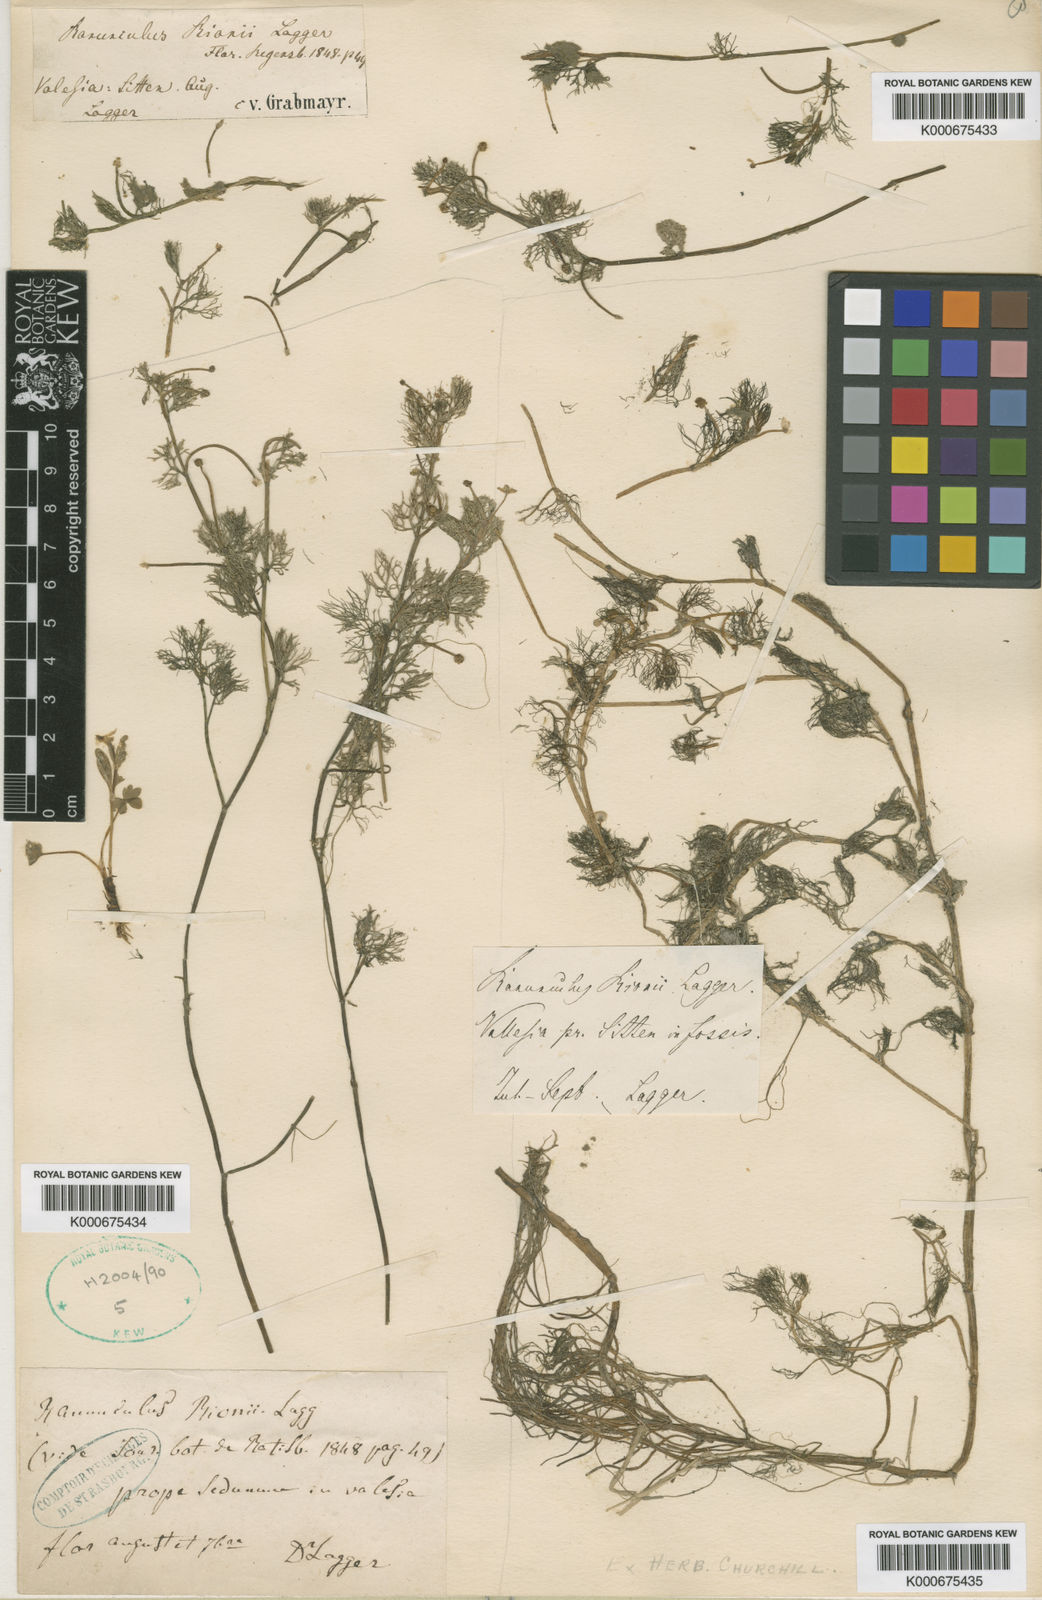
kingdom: Plantae
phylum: Tracheophyta
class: Magnoliopsida
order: Ranunculales
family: Ranunculaceae
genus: Ranunculus
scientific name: Ranunculus rionii
